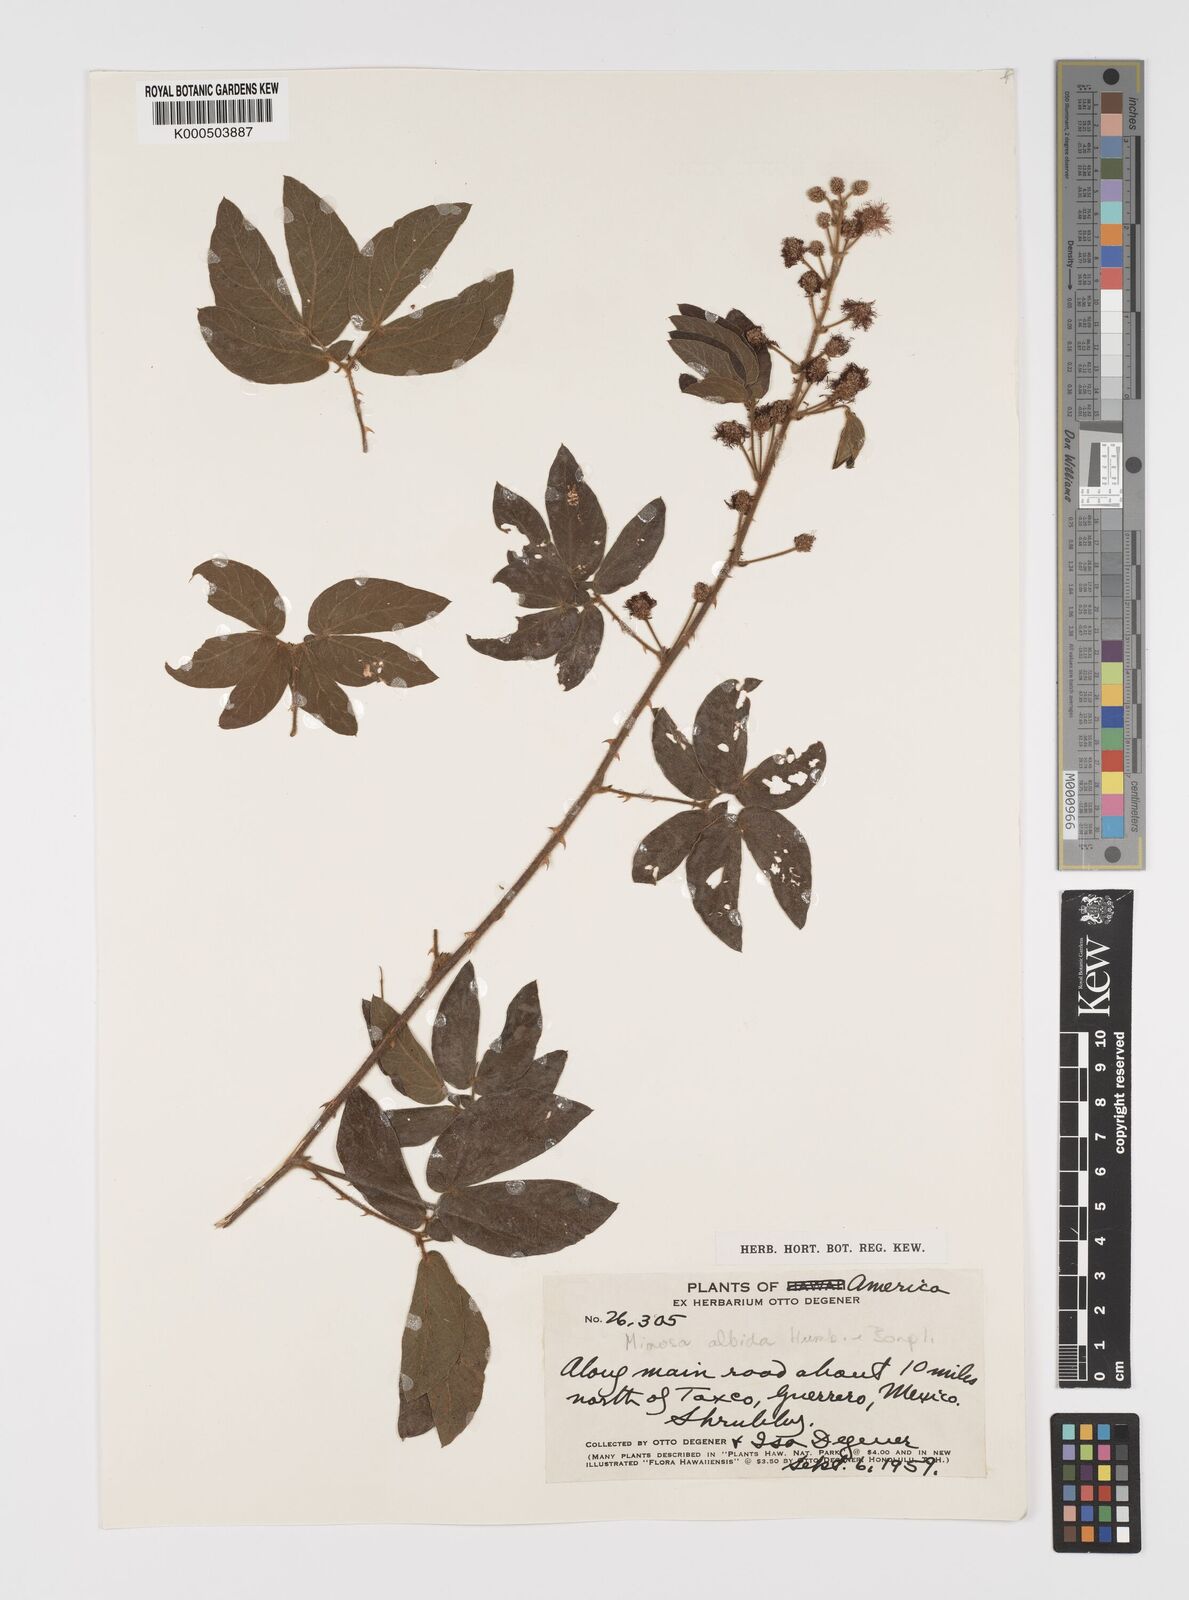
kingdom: Plantae
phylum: Tracheophyta
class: Magnoliopsida
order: Fabales
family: Fabaceae
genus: Mimosa
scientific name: Mimosa albida
